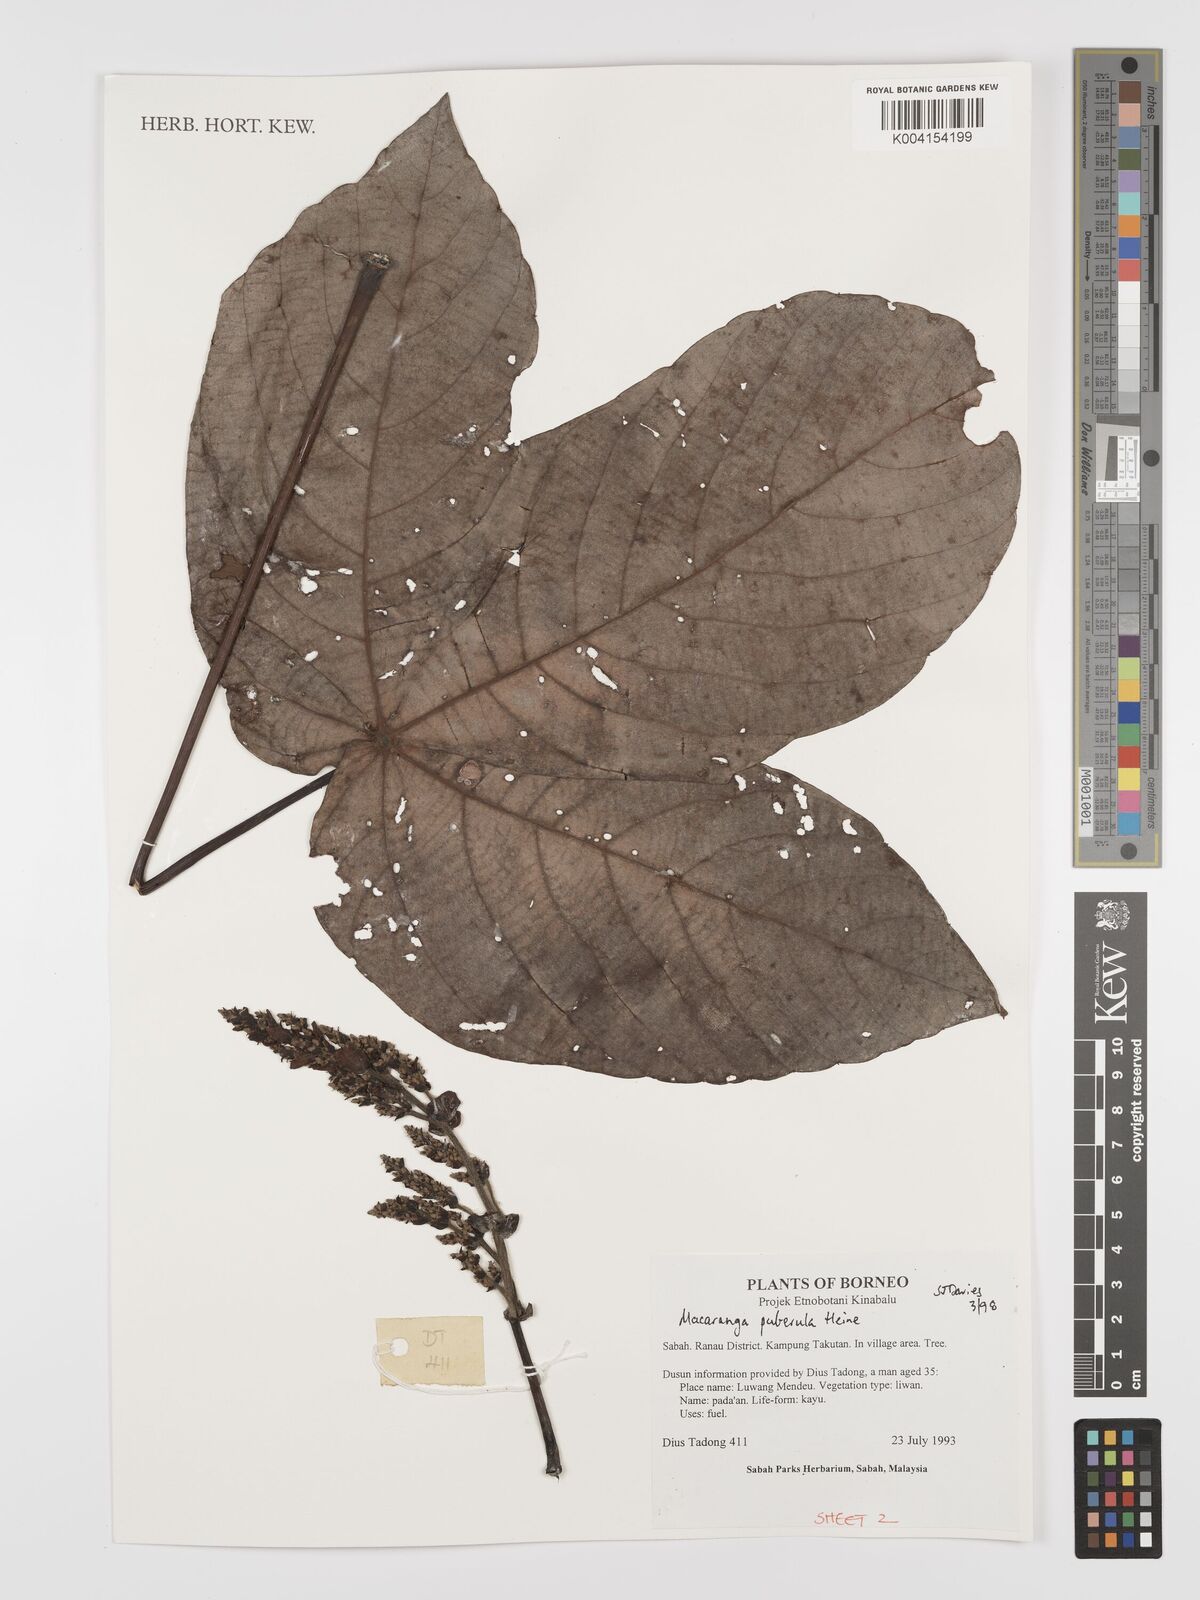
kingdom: Plantae
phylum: Tracheophyta
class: Magnoliopsida
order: Malpighiales
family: Euphorbiaceae
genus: Macaranga
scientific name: Macaranga puberula
